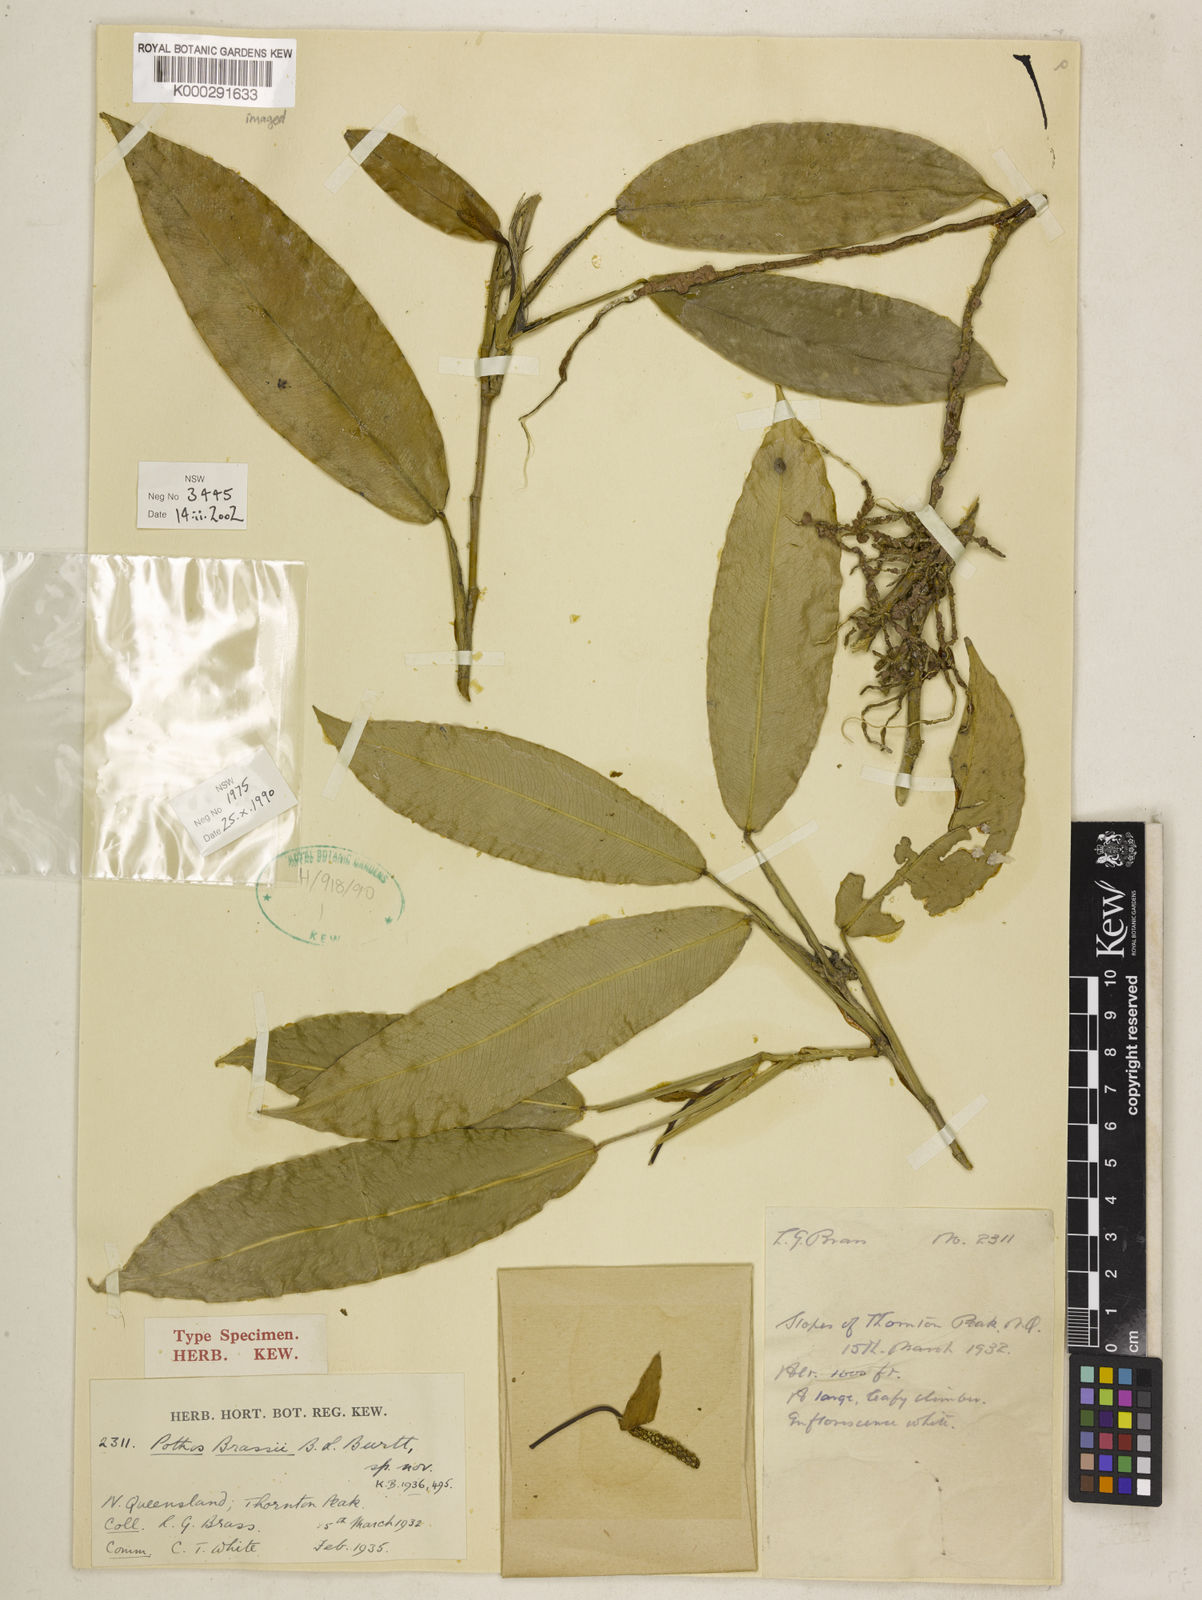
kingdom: Plantae
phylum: Tracheophyta
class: Liliopsida
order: Alismatales
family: Araceae
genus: Pothos
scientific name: Pothos brassii
